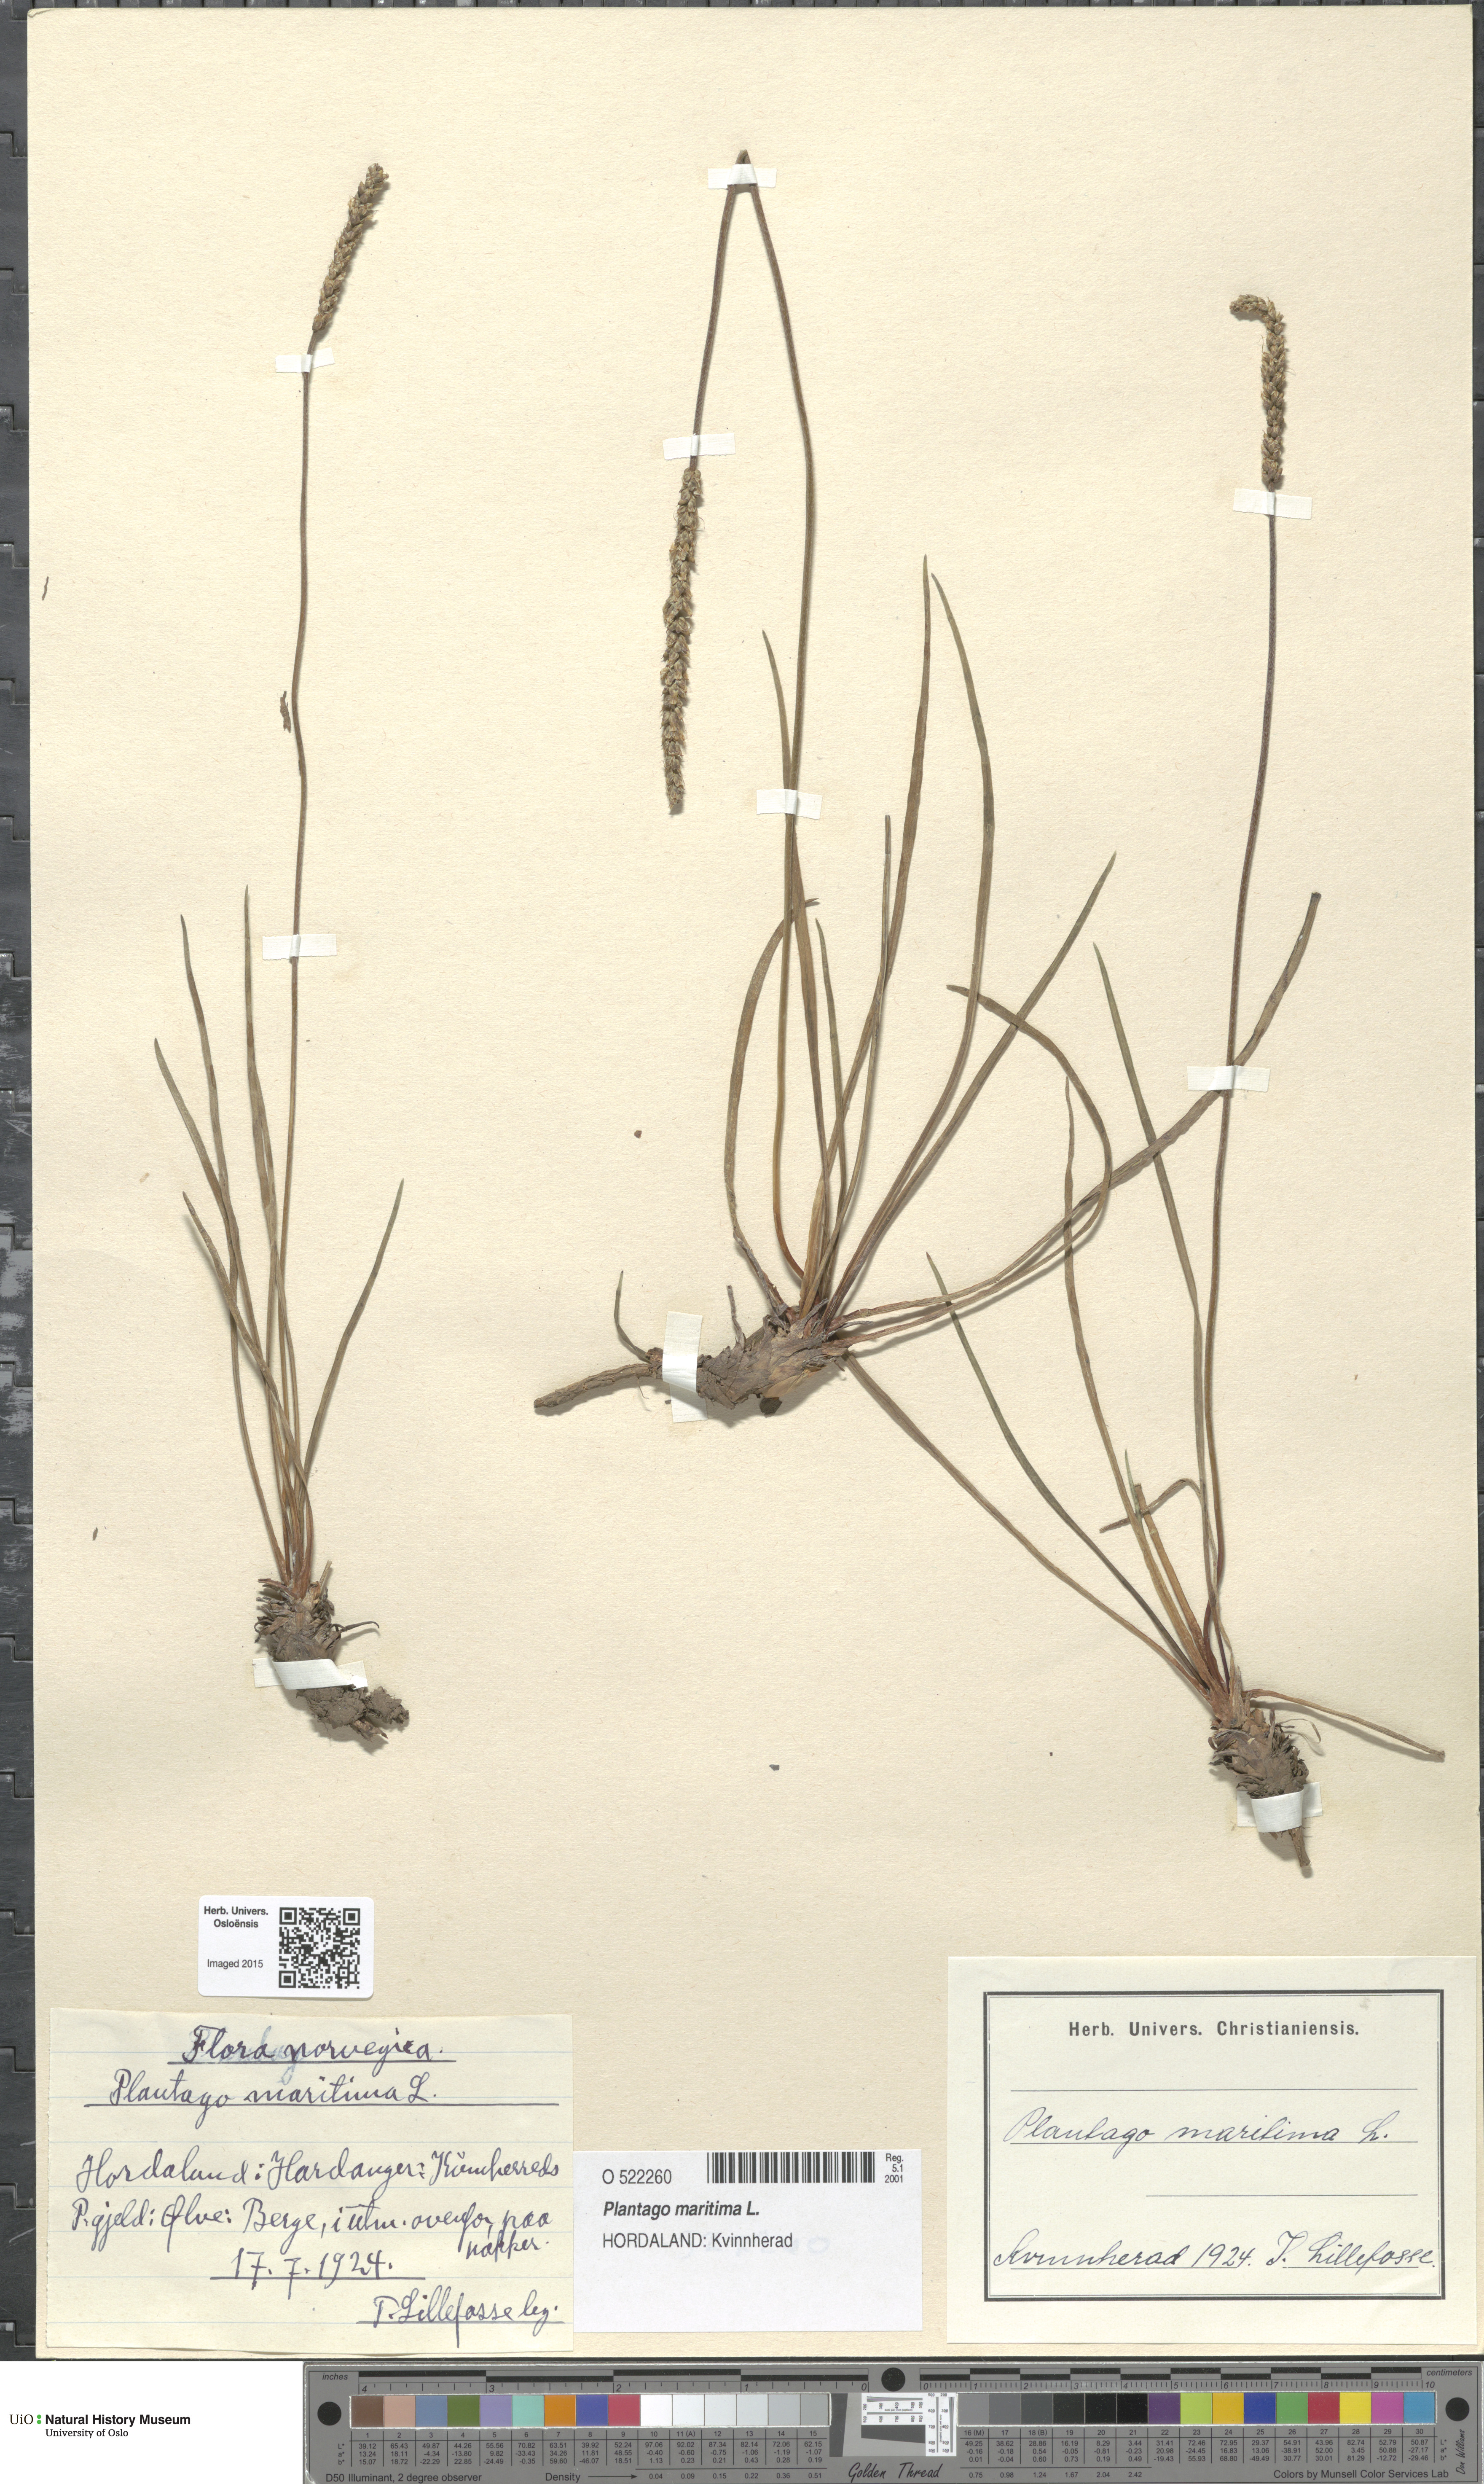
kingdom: Plantae
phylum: Tracheophyta
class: Magnoliopsida
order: Lamiales
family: Plantaginaceae
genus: Plantago
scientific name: Plantago maritima
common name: Sea plantain
